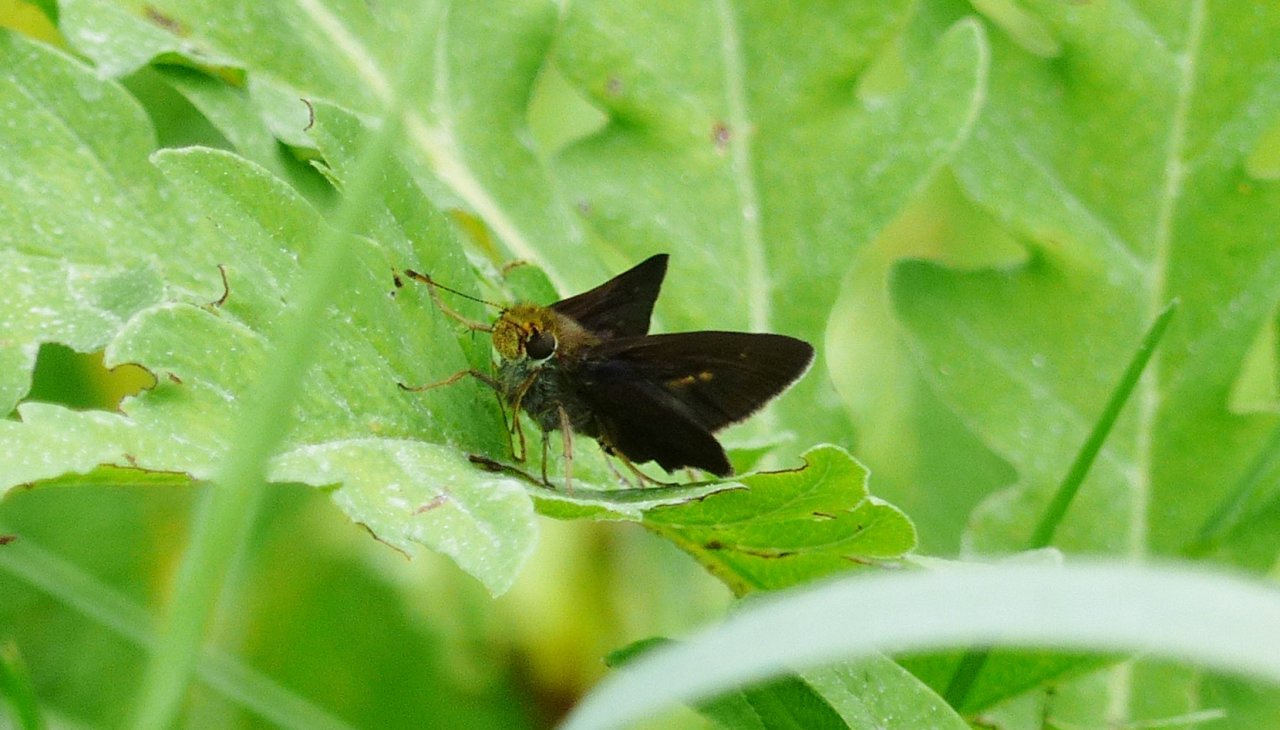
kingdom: Animalia
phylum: Arthropoda
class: Insecta
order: Lepidoptera
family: Hesperiidae
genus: Euphyes
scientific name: Euphyes vestris
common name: Dun Skipper
